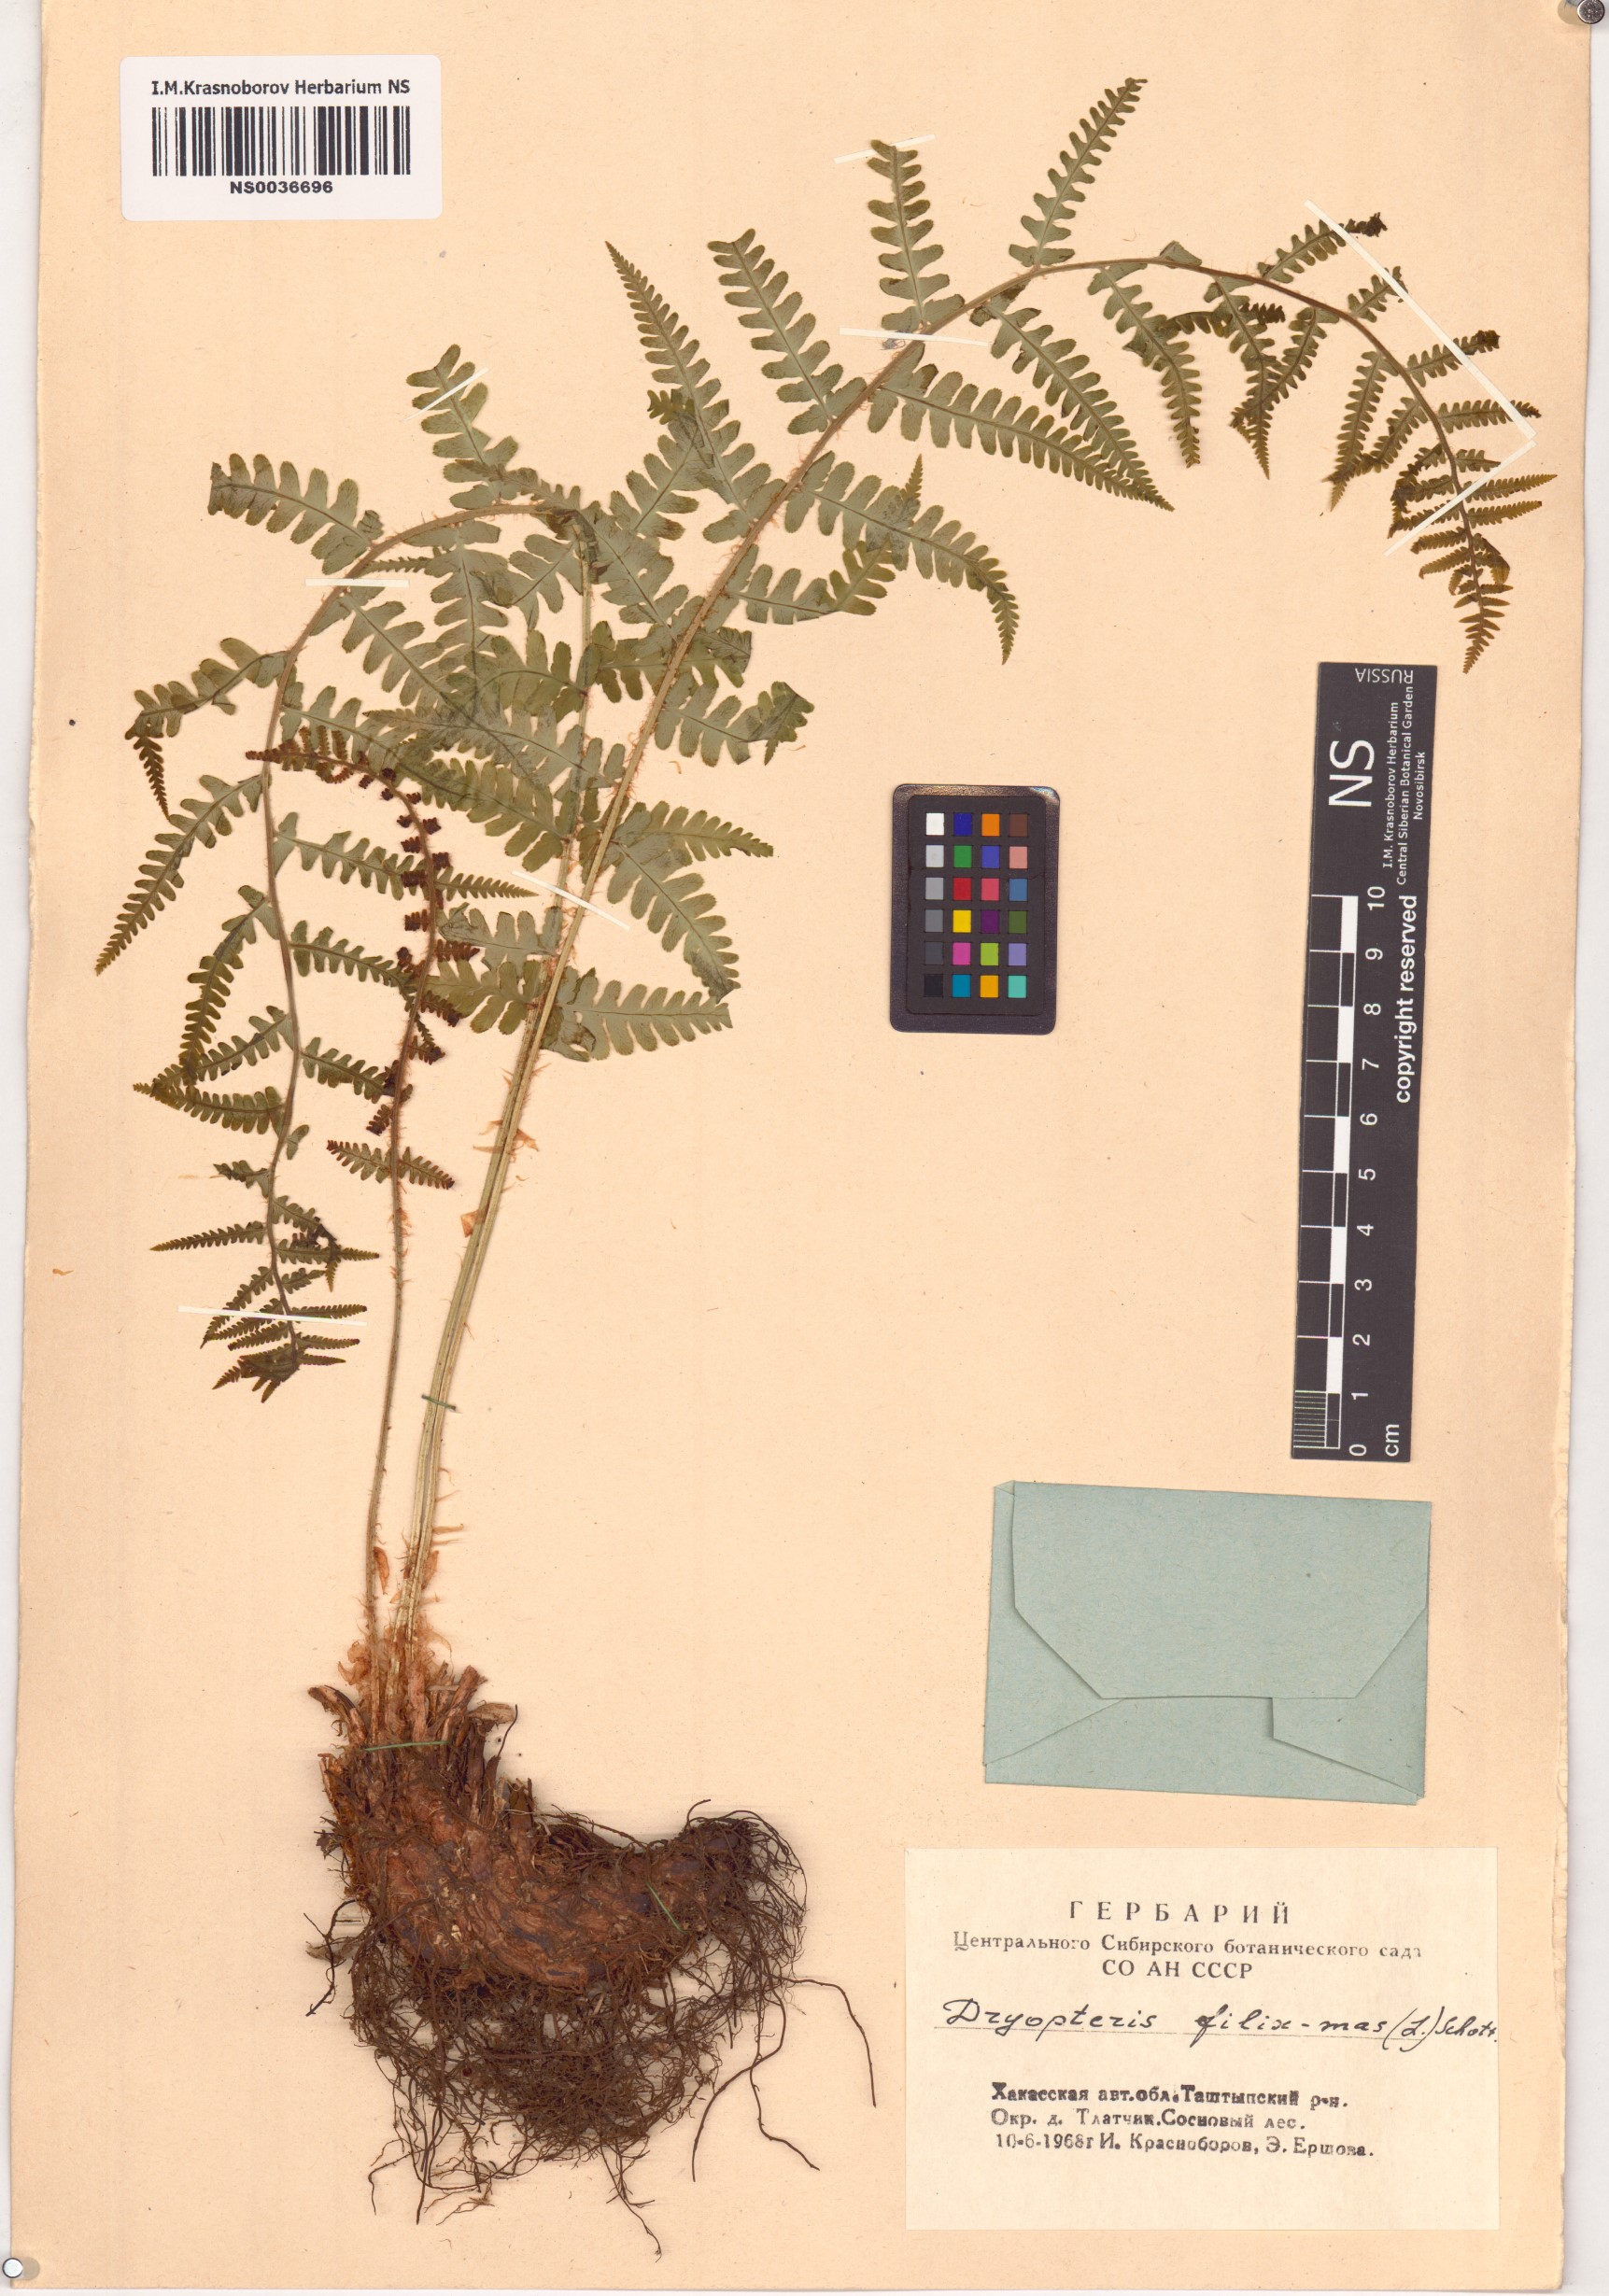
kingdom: Plantae
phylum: Tracheophyta
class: Polypodiopsida
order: Polypodiales
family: Dryopteridaceae
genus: Dryopteris
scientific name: Dryopteris filix-mas
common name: Male fern
